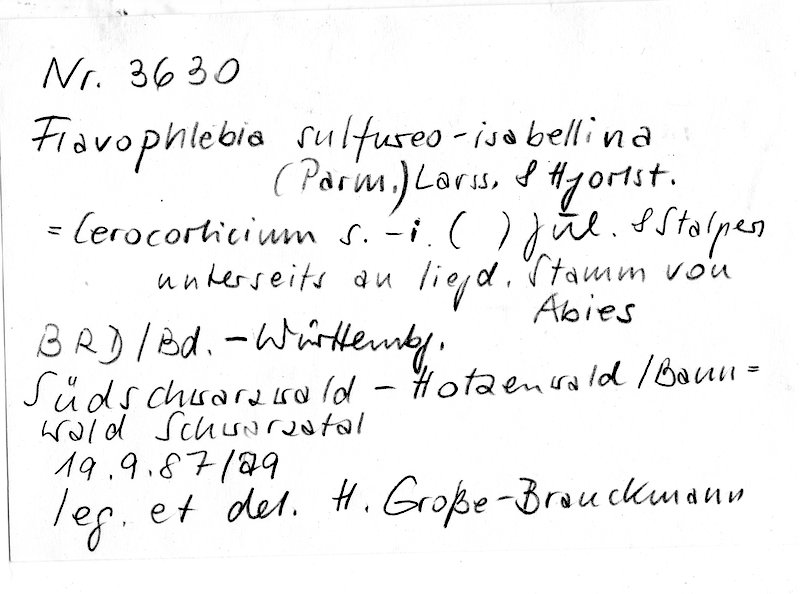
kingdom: Plantae
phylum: Tracheophyta
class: Pinopsida
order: Pinales
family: Pinaceae
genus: Abies
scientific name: Abies
